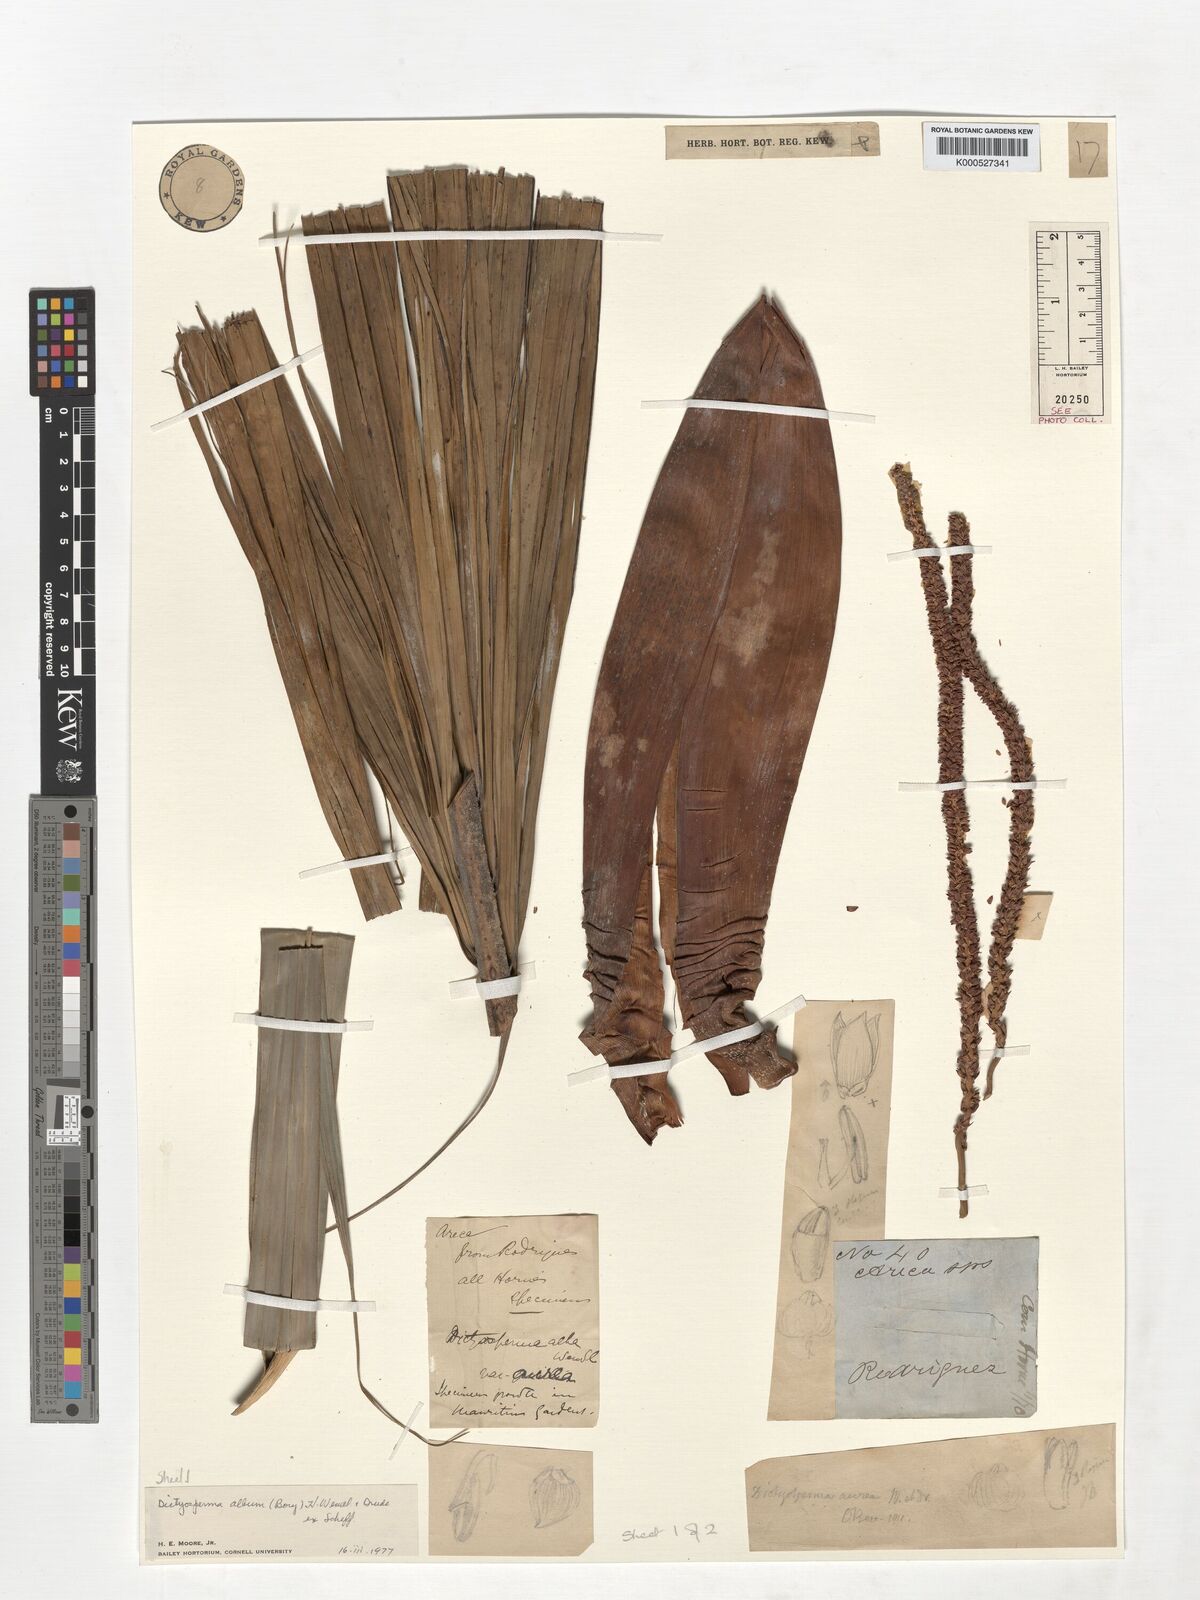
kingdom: Plantae
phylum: Tracheophyta
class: Liliopsida
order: Arecales
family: Arecaceae
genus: Dictyosperma
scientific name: Dictyosperma album
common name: Common princess palm
